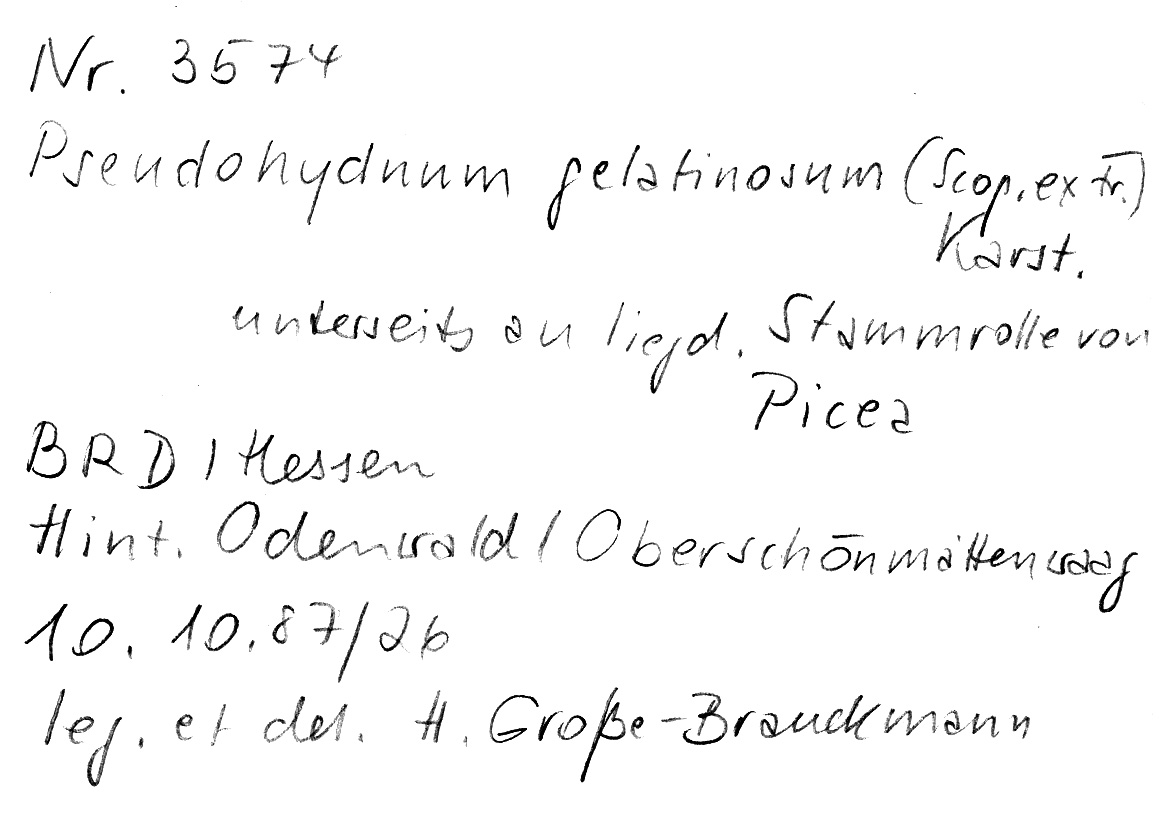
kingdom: Fungi
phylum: Basidiomycota
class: Agaricomycetes
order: Auriculariales
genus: Pseudohydnum
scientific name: Pseudohydnum gelatinosum
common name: Jelly tongue
